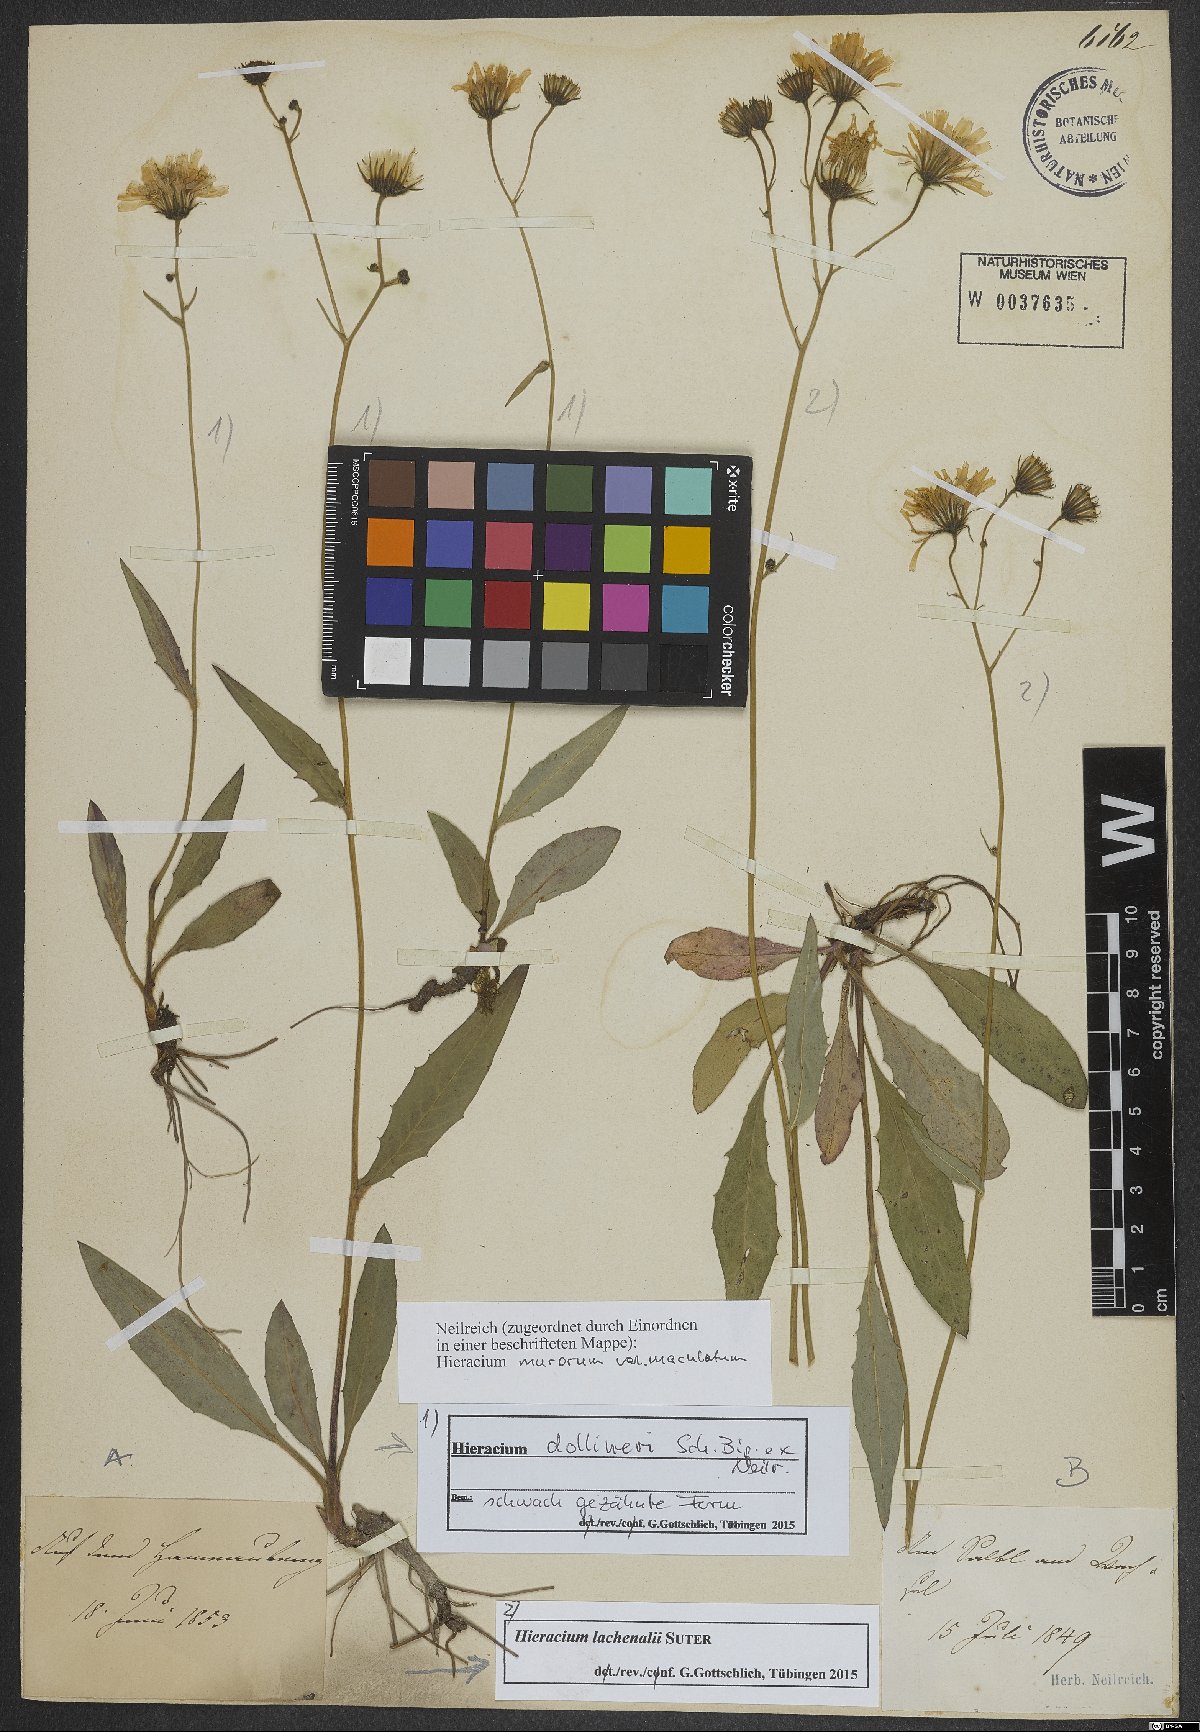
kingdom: Plantae
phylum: Tracheophyta
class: Magnoliopsida
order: Asterales
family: Asteraceae
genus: Hieracium
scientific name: Hieracium dollineri
